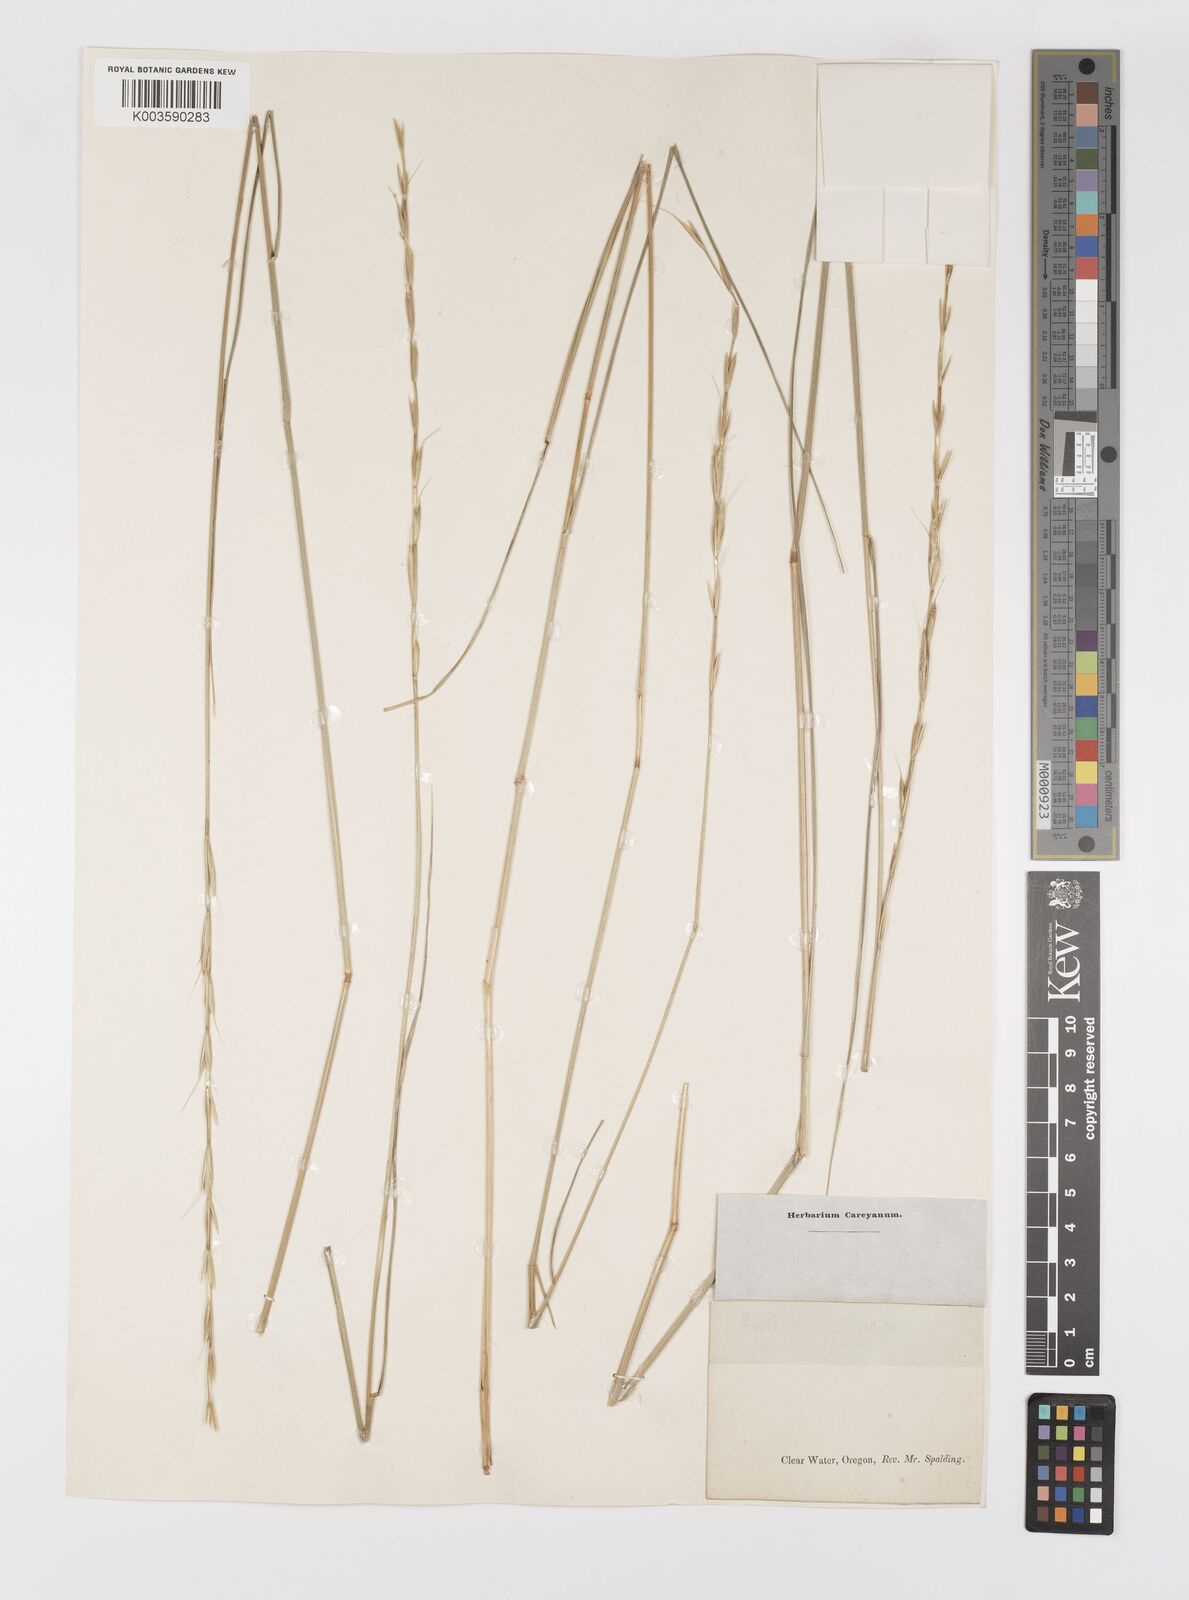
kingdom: Plantae
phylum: Tracheophyta
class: Liliopsida
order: Poales
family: Poaceae
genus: Elymus
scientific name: Elymus
